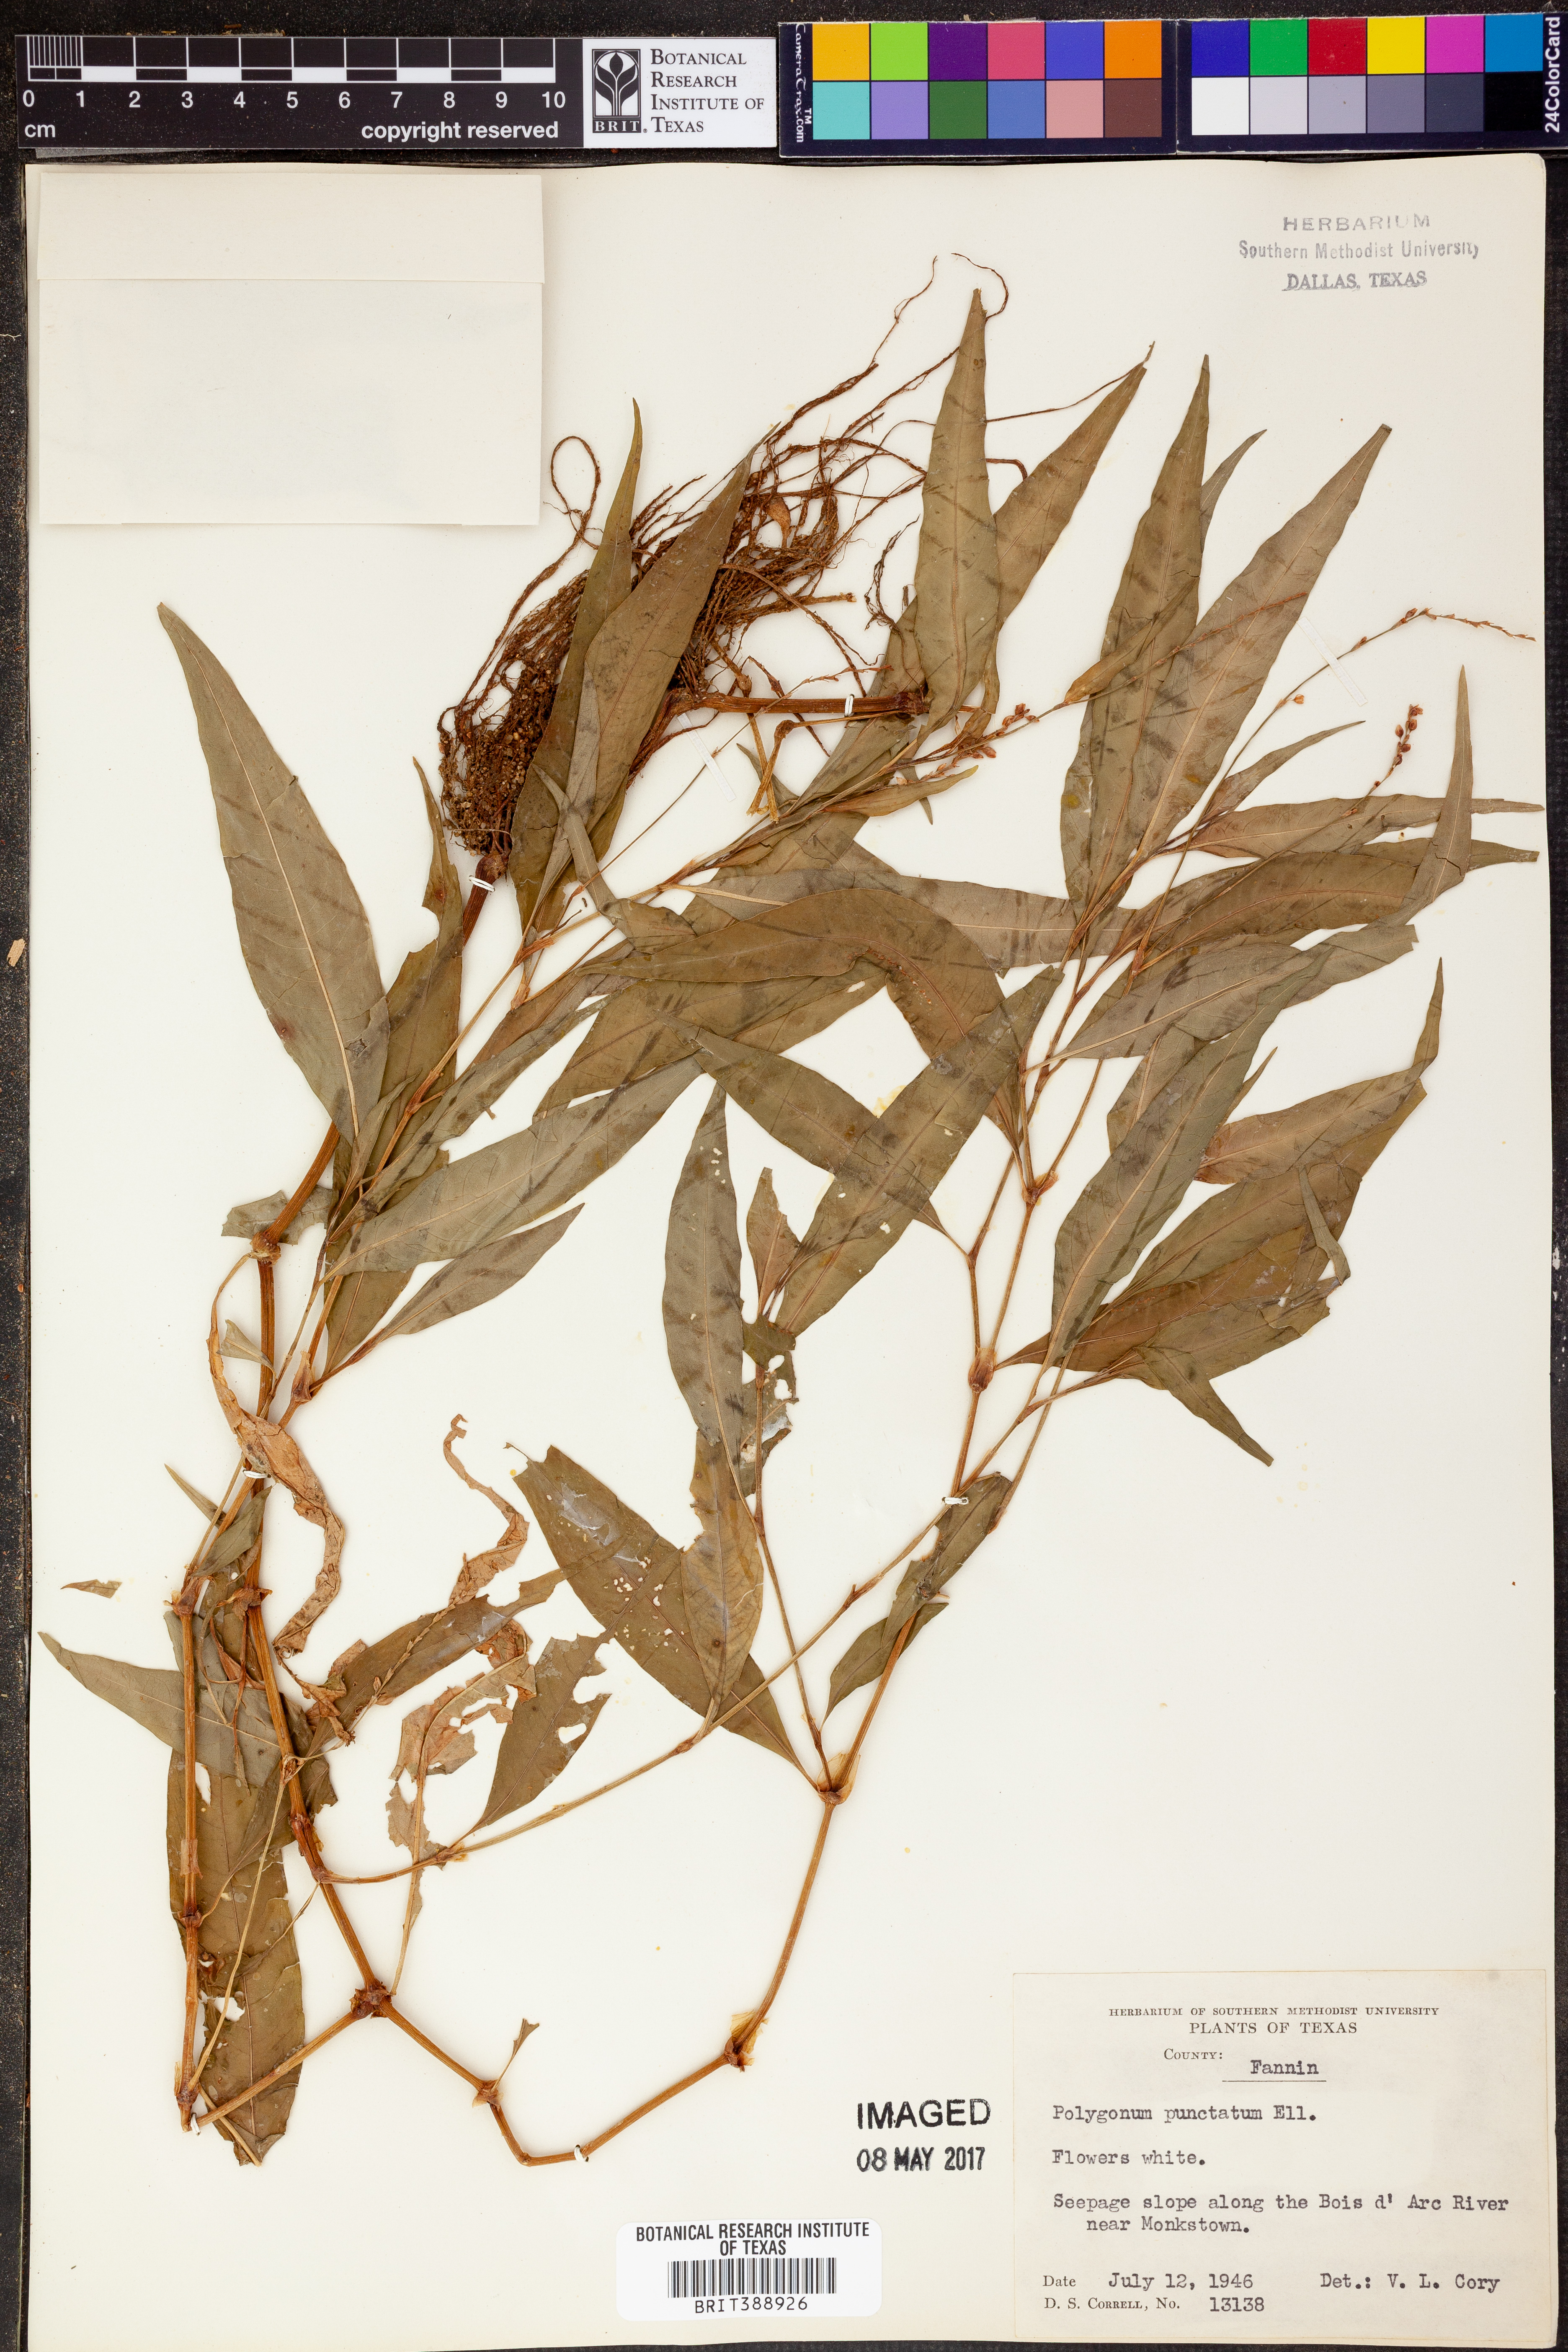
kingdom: Plantae
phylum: Tracheophyta
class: Magnoliopsida
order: Caryophyllales
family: Polygonaceae
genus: Persicaria
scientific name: Persicaria punctata
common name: Dotted smartweed
